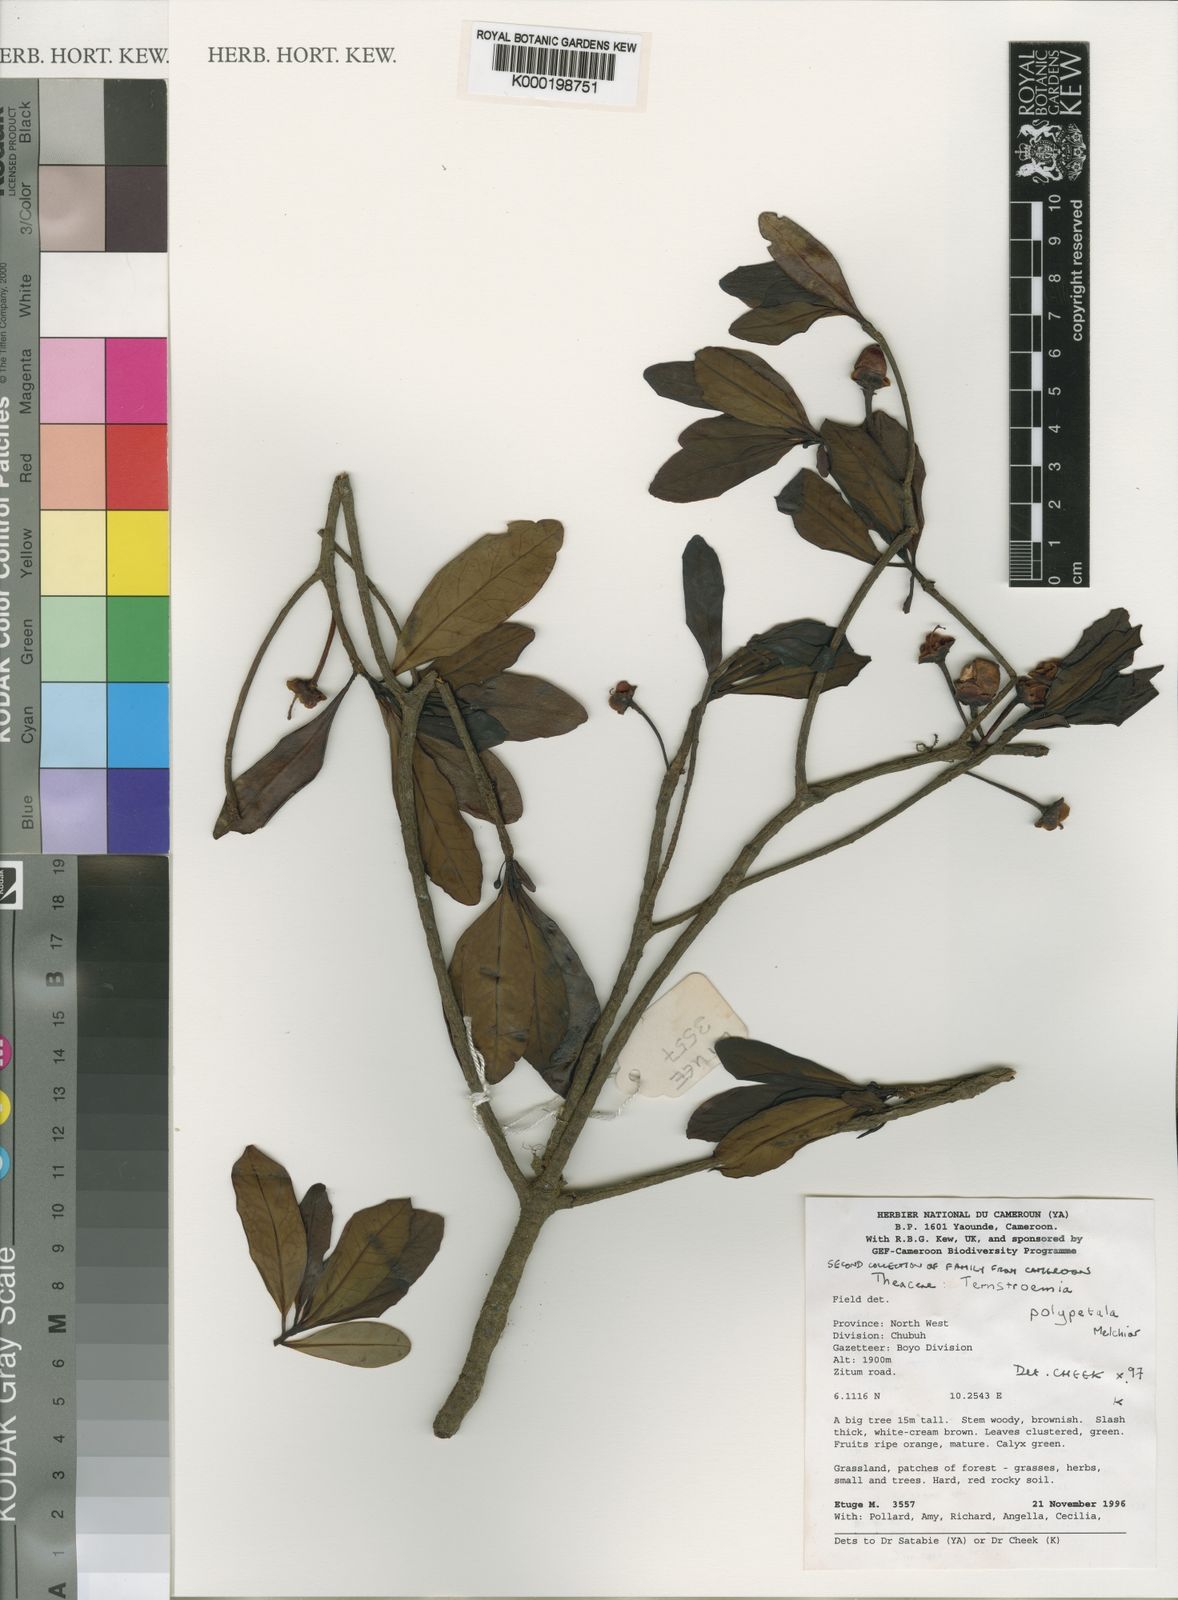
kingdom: Plantae
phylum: Tracheophyta
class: Magnoliopsida
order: Ericales
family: Pentaphylacaceae
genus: Ternstroemia
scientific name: Ternstroemia cameroonensis
